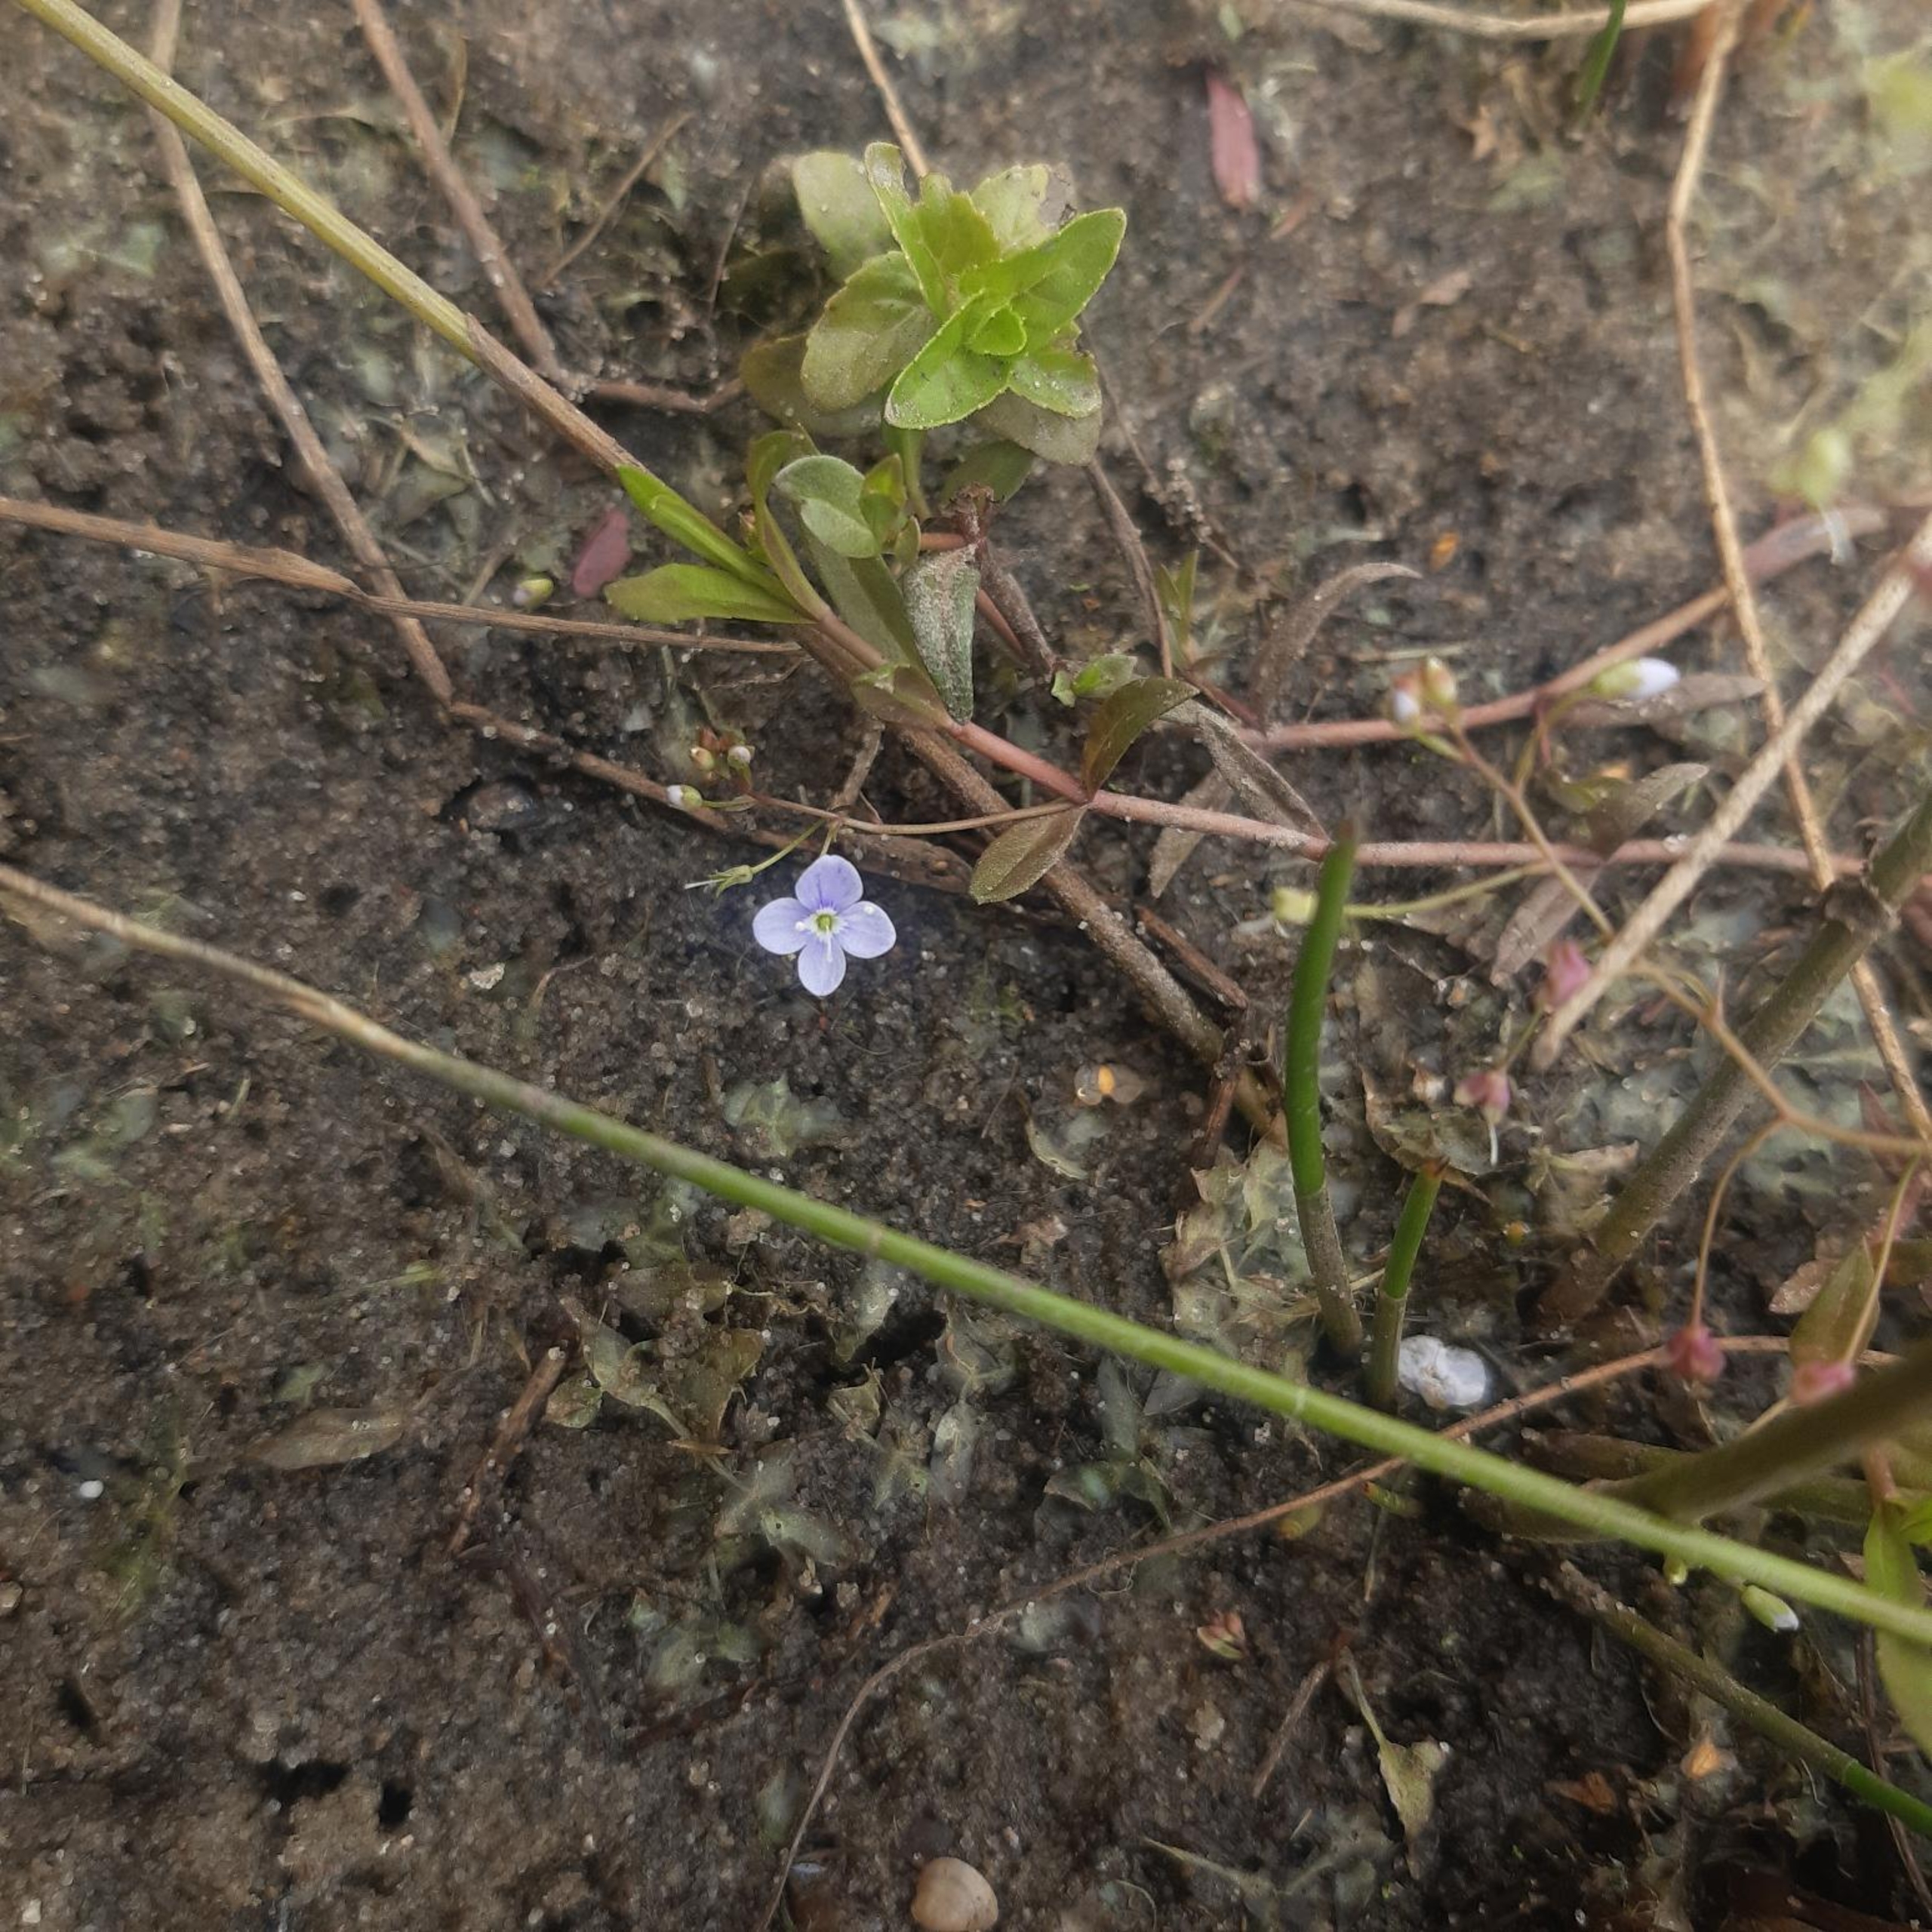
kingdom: Plantae
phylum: Tracheophyta
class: Magnoliopsida
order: Lamiales
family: Plantaginaceae
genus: Veronica
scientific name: Veronica scutellata
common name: Smalbladet ærenpris
